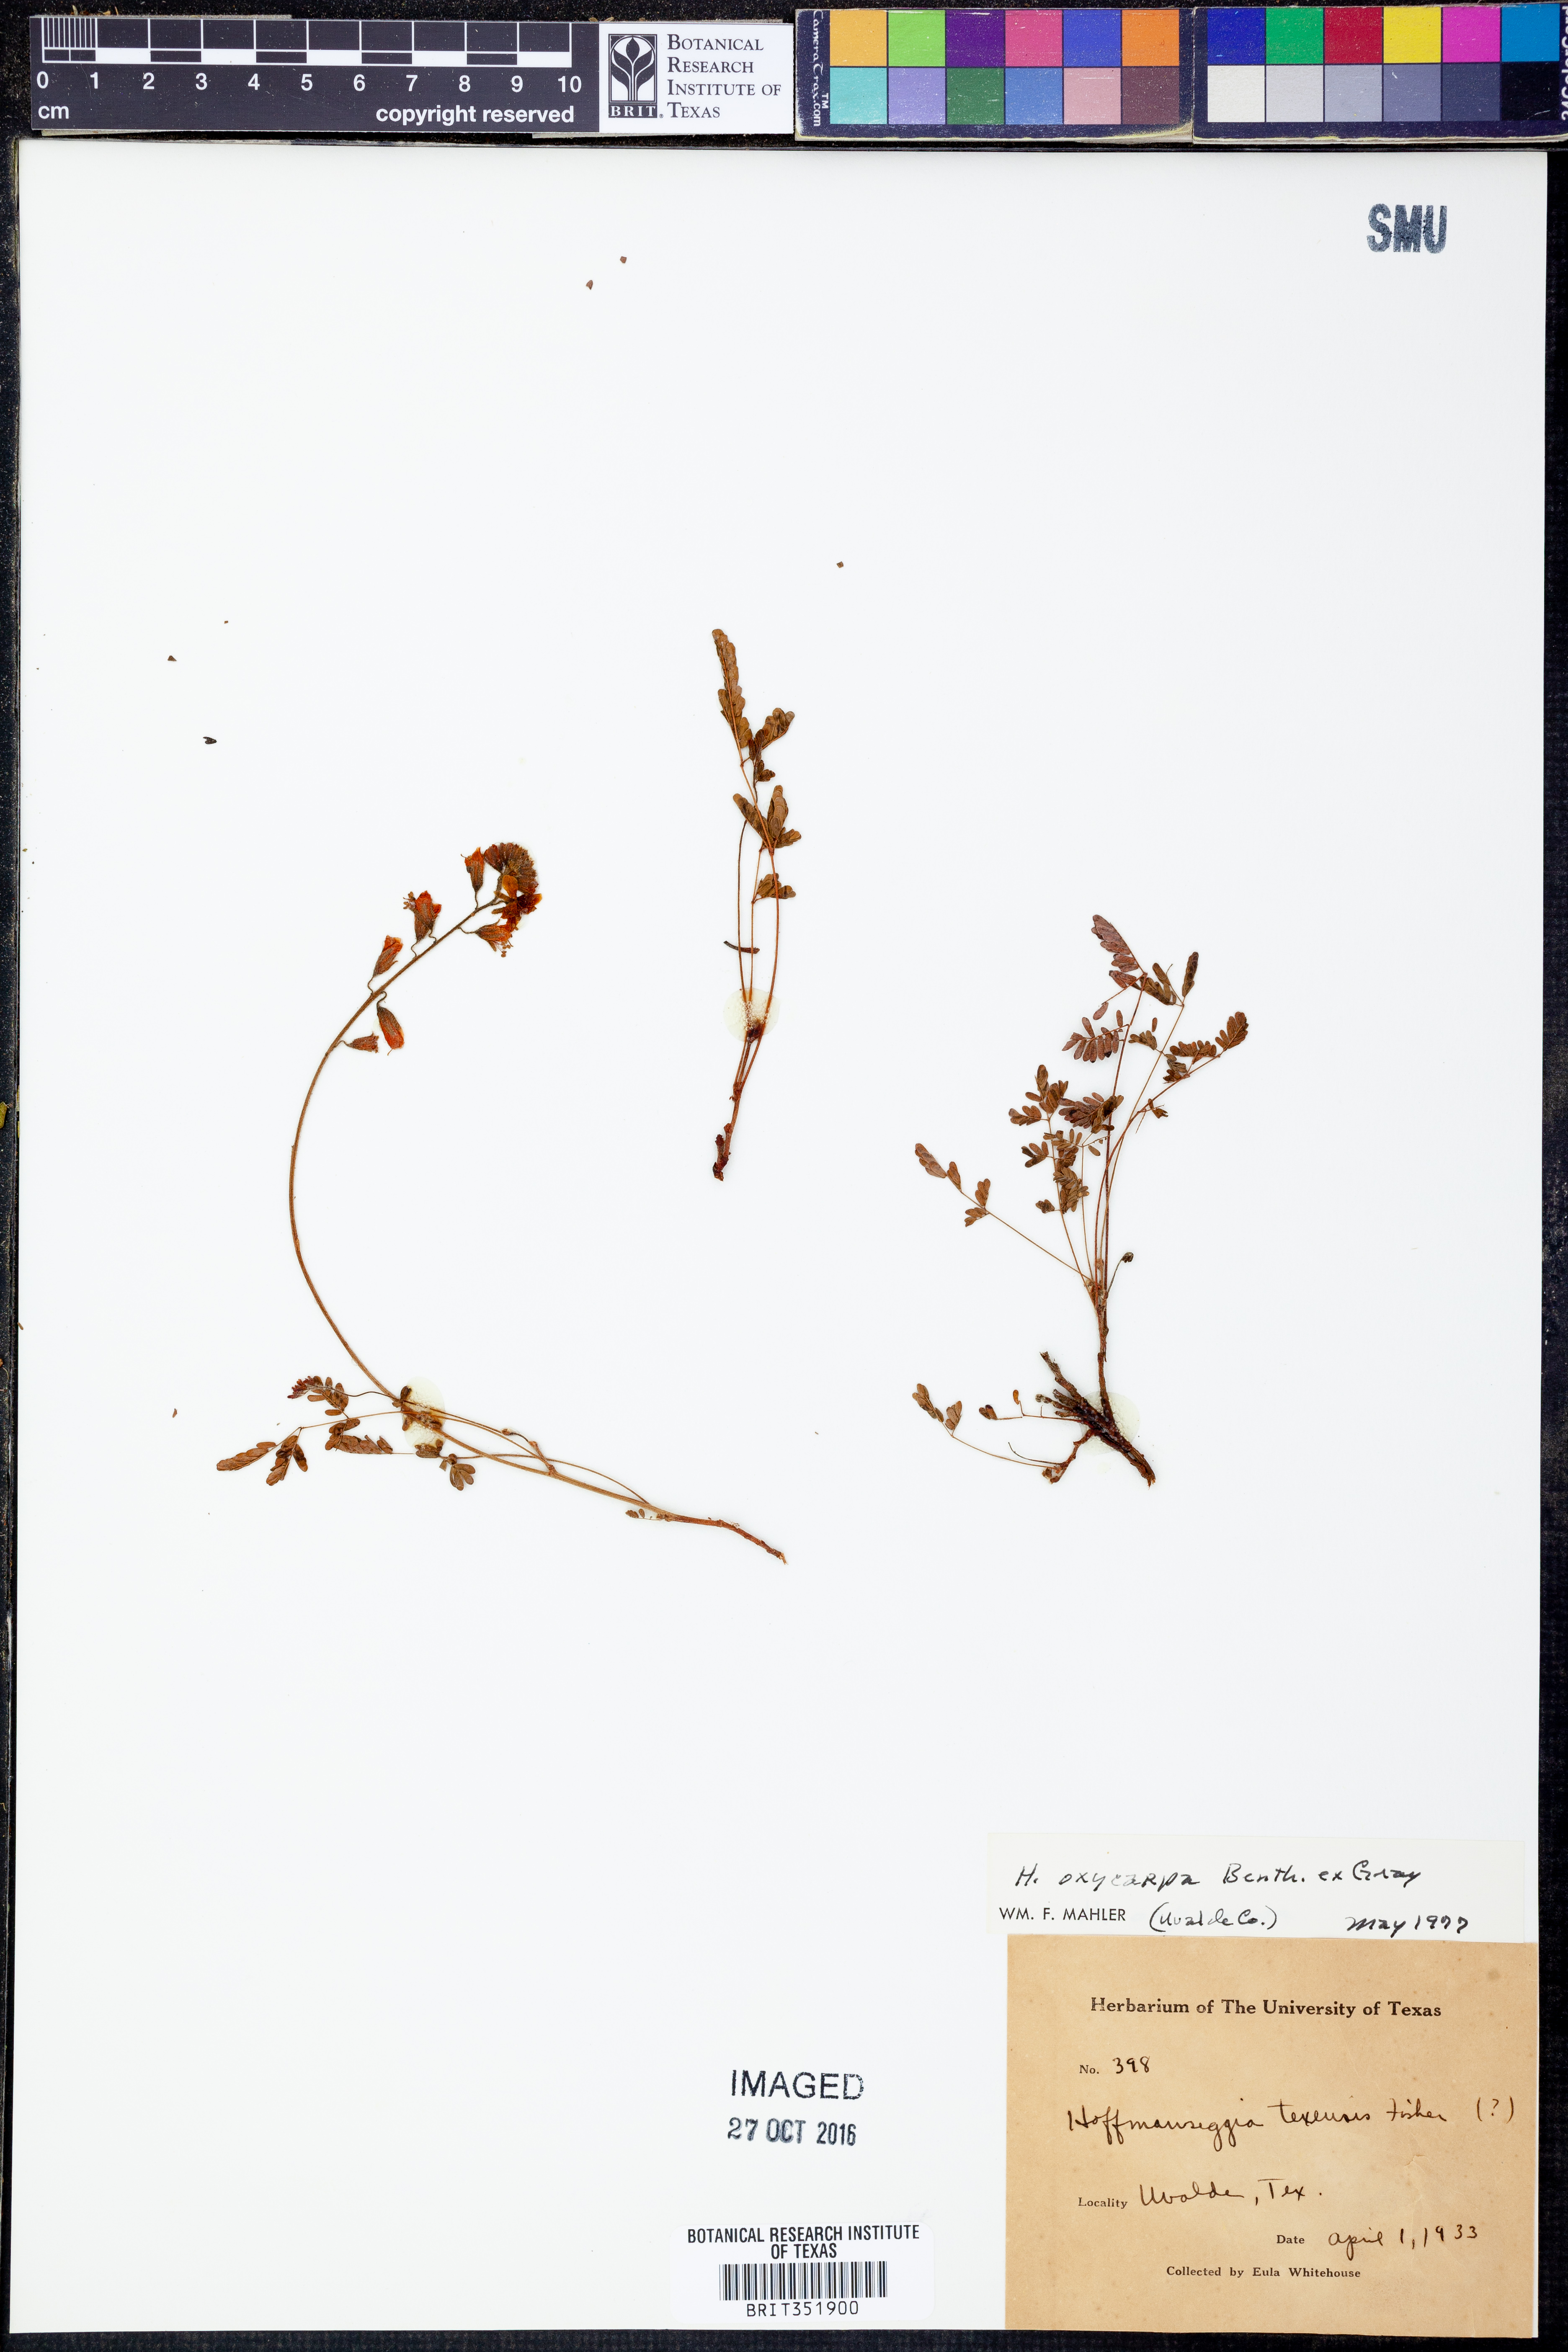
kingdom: Plantae
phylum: Tracheophyta
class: Magnoliopsida
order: Fabales
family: Fabaceae
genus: Hoffmannseggia
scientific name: Hoffmannseggia oxycarpa
